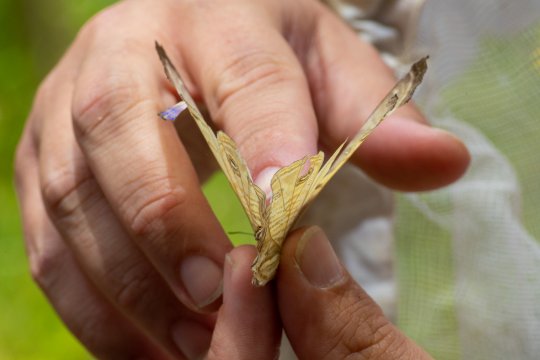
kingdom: Animalia
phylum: Arthropoda
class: Insecta
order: Lepidoptera
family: Nymphalidae
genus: Morpho
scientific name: Morpho sulkowskyi
